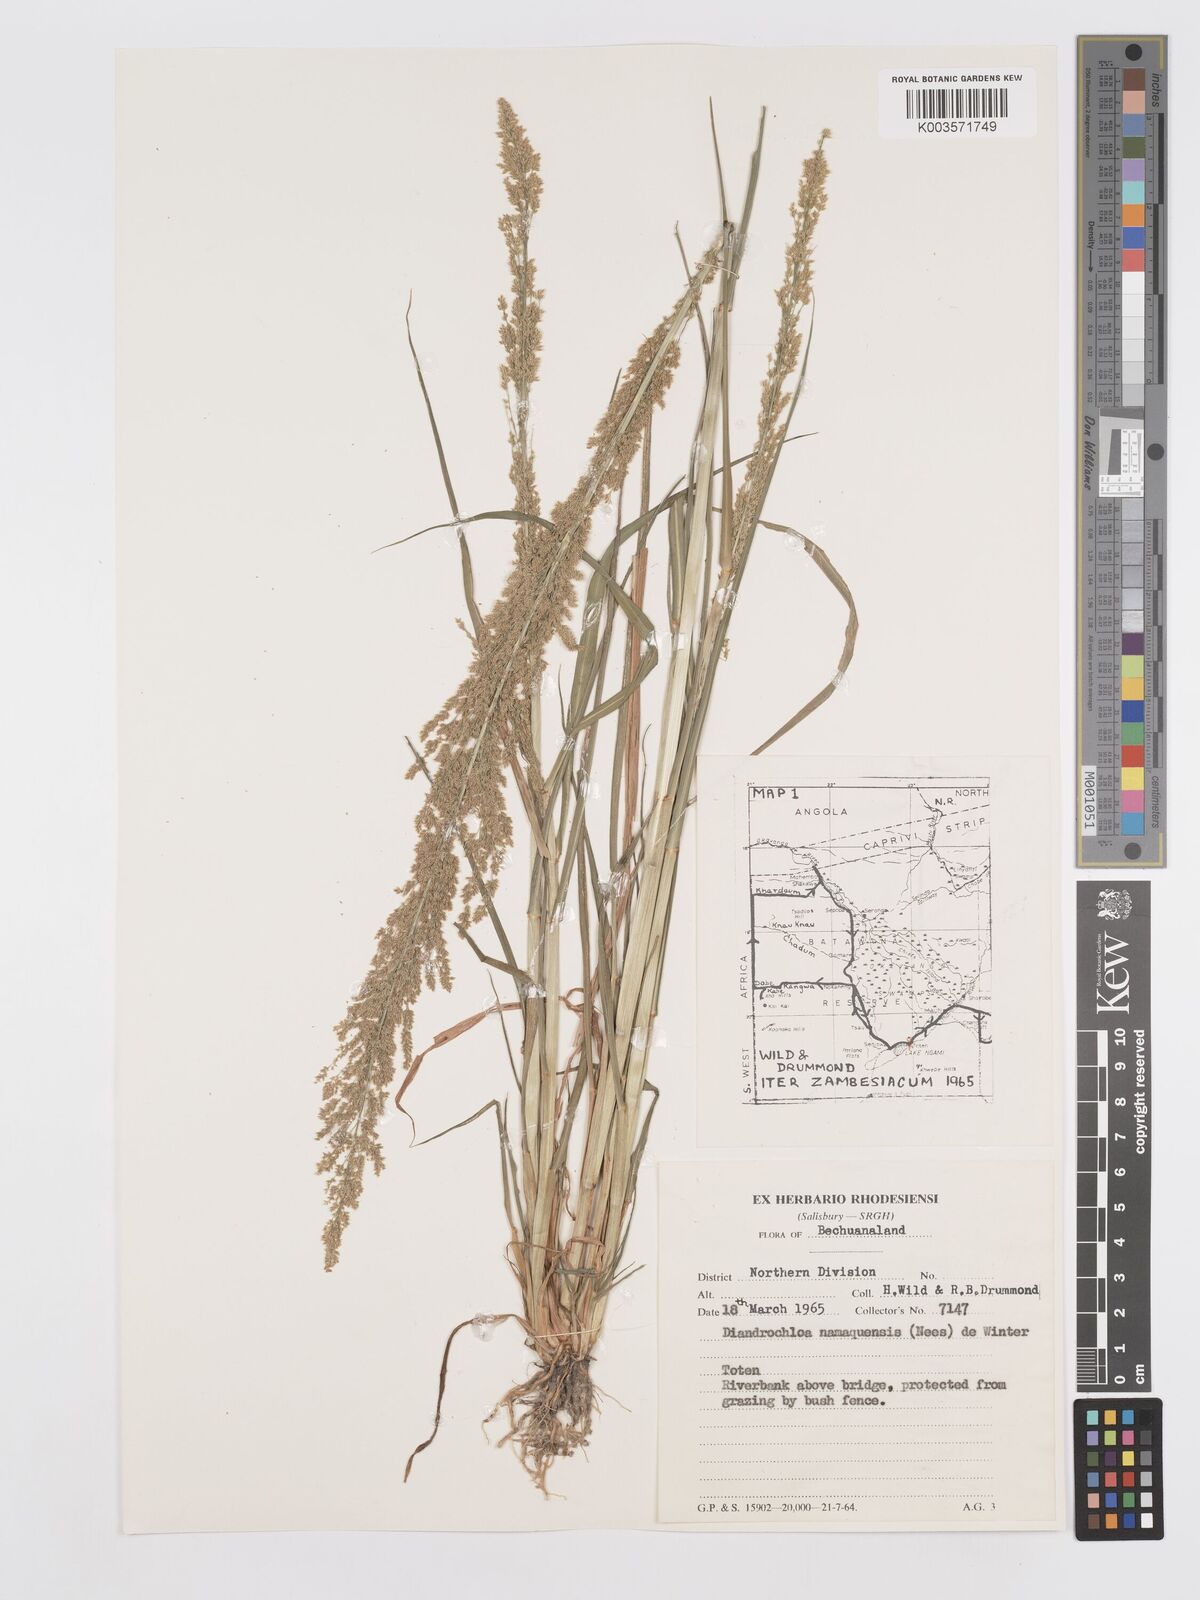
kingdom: Plantae
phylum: Tracheophyta
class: Liliopsida
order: Poales
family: Poaceae
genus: Eragrostis
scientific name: Eragrostis japonica
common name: Pond lovegrass
